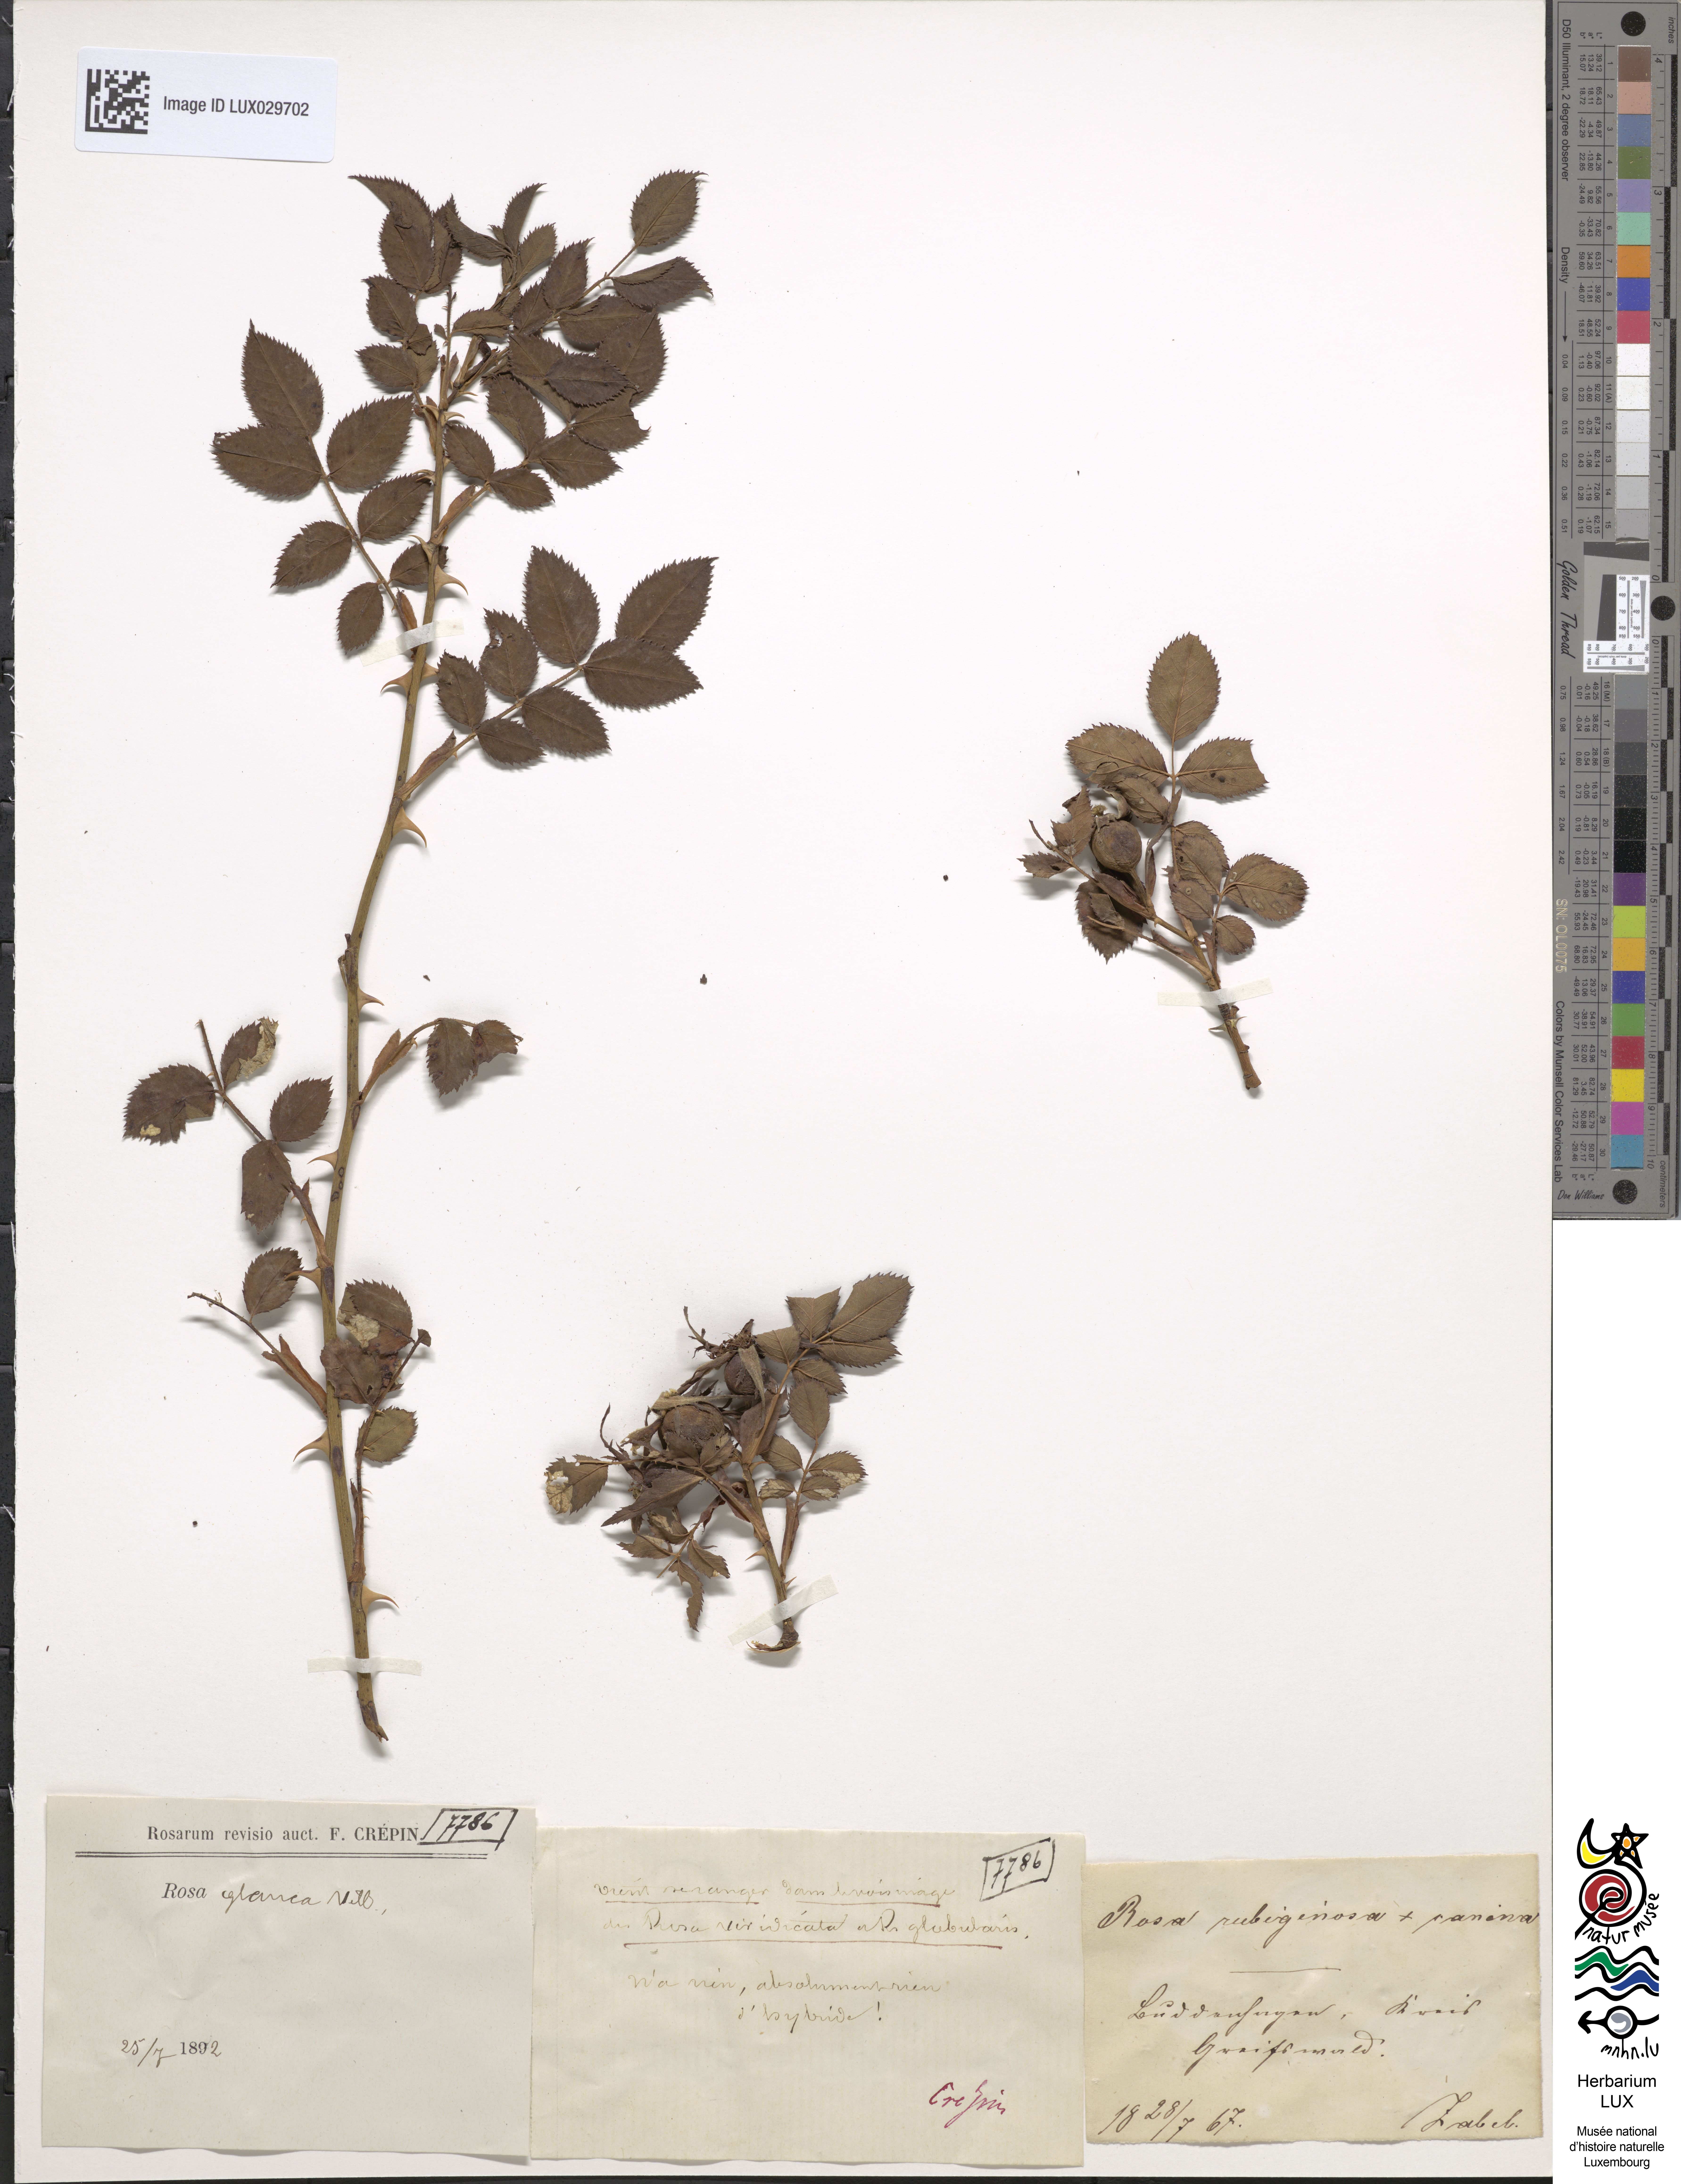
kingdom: Plantae
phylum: Tracheophyta
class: Magnoliopsida
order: Rosales
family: Rosaceae
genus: Rosa
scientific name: Rosa dumalis
